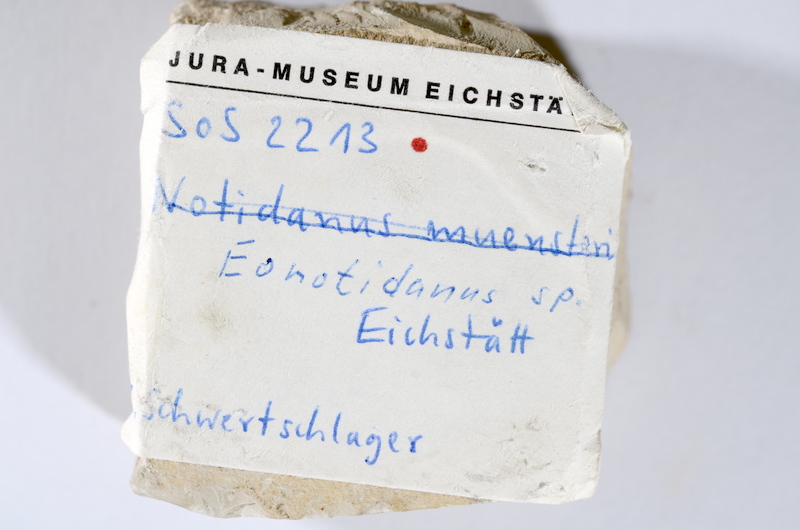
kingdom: Animalia
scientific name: Animalia
